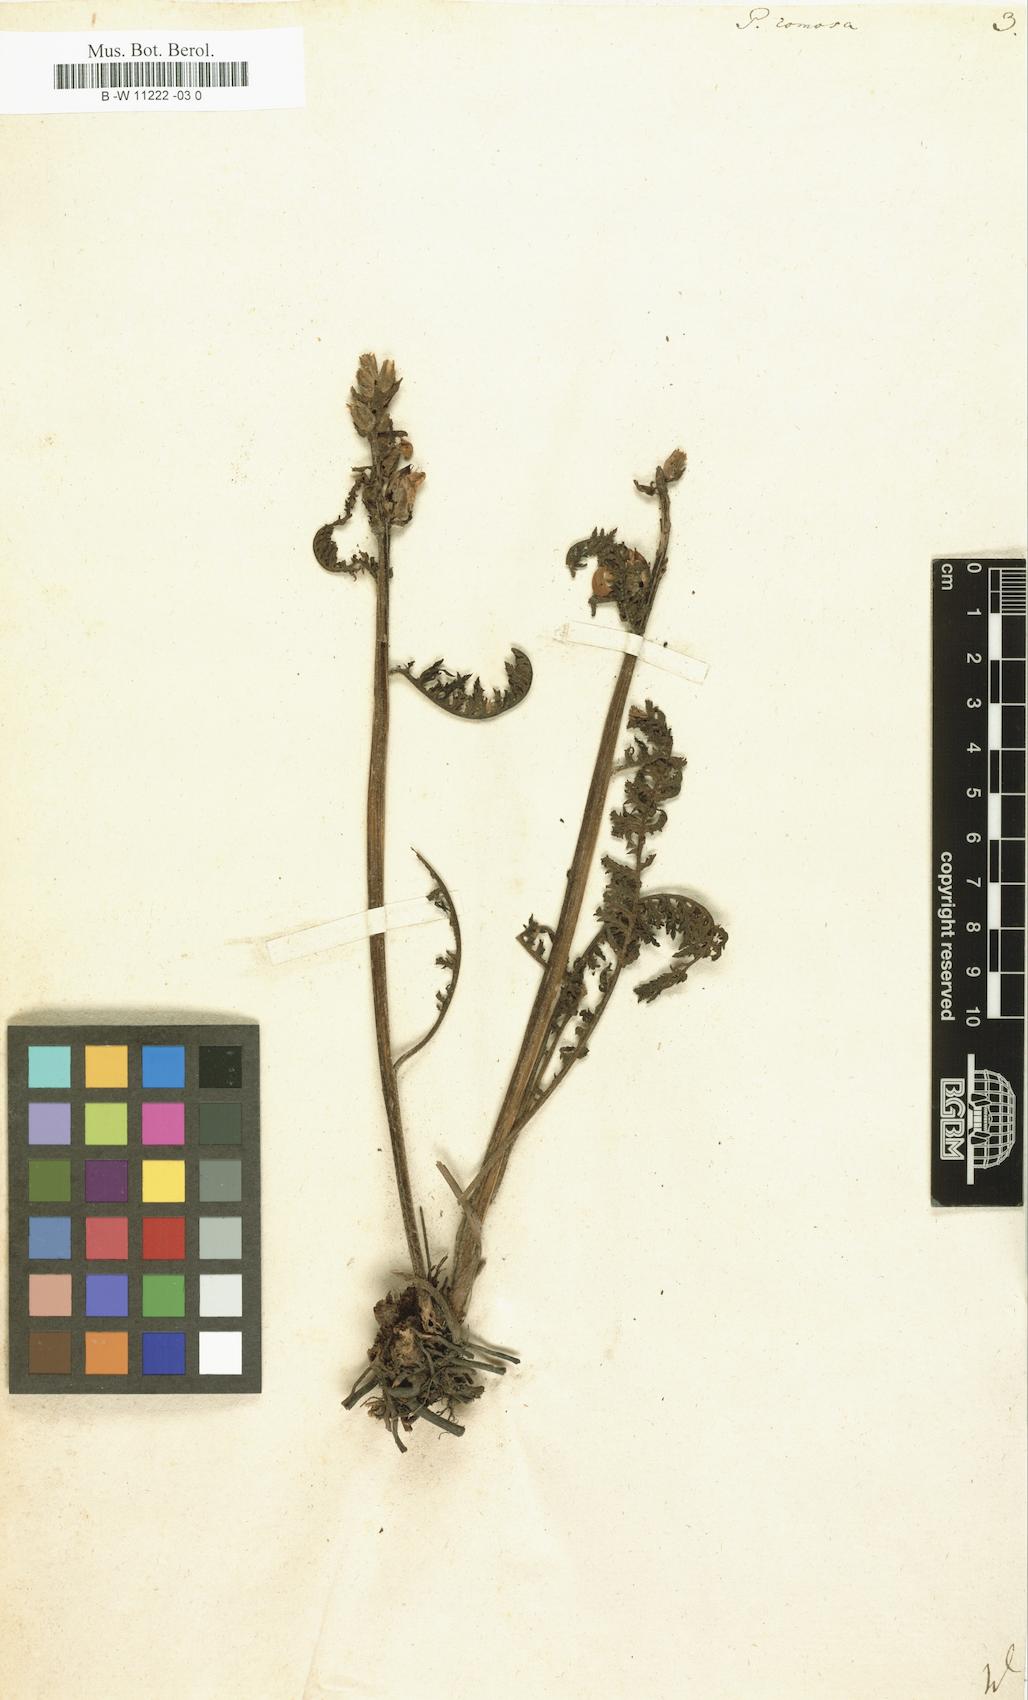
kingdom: Plantae
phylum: Tracheophyta
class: Magnoliopsida
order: Lamiales
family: Orobanchaceae
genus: Pedicularis
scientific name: Pedicularis comosa
